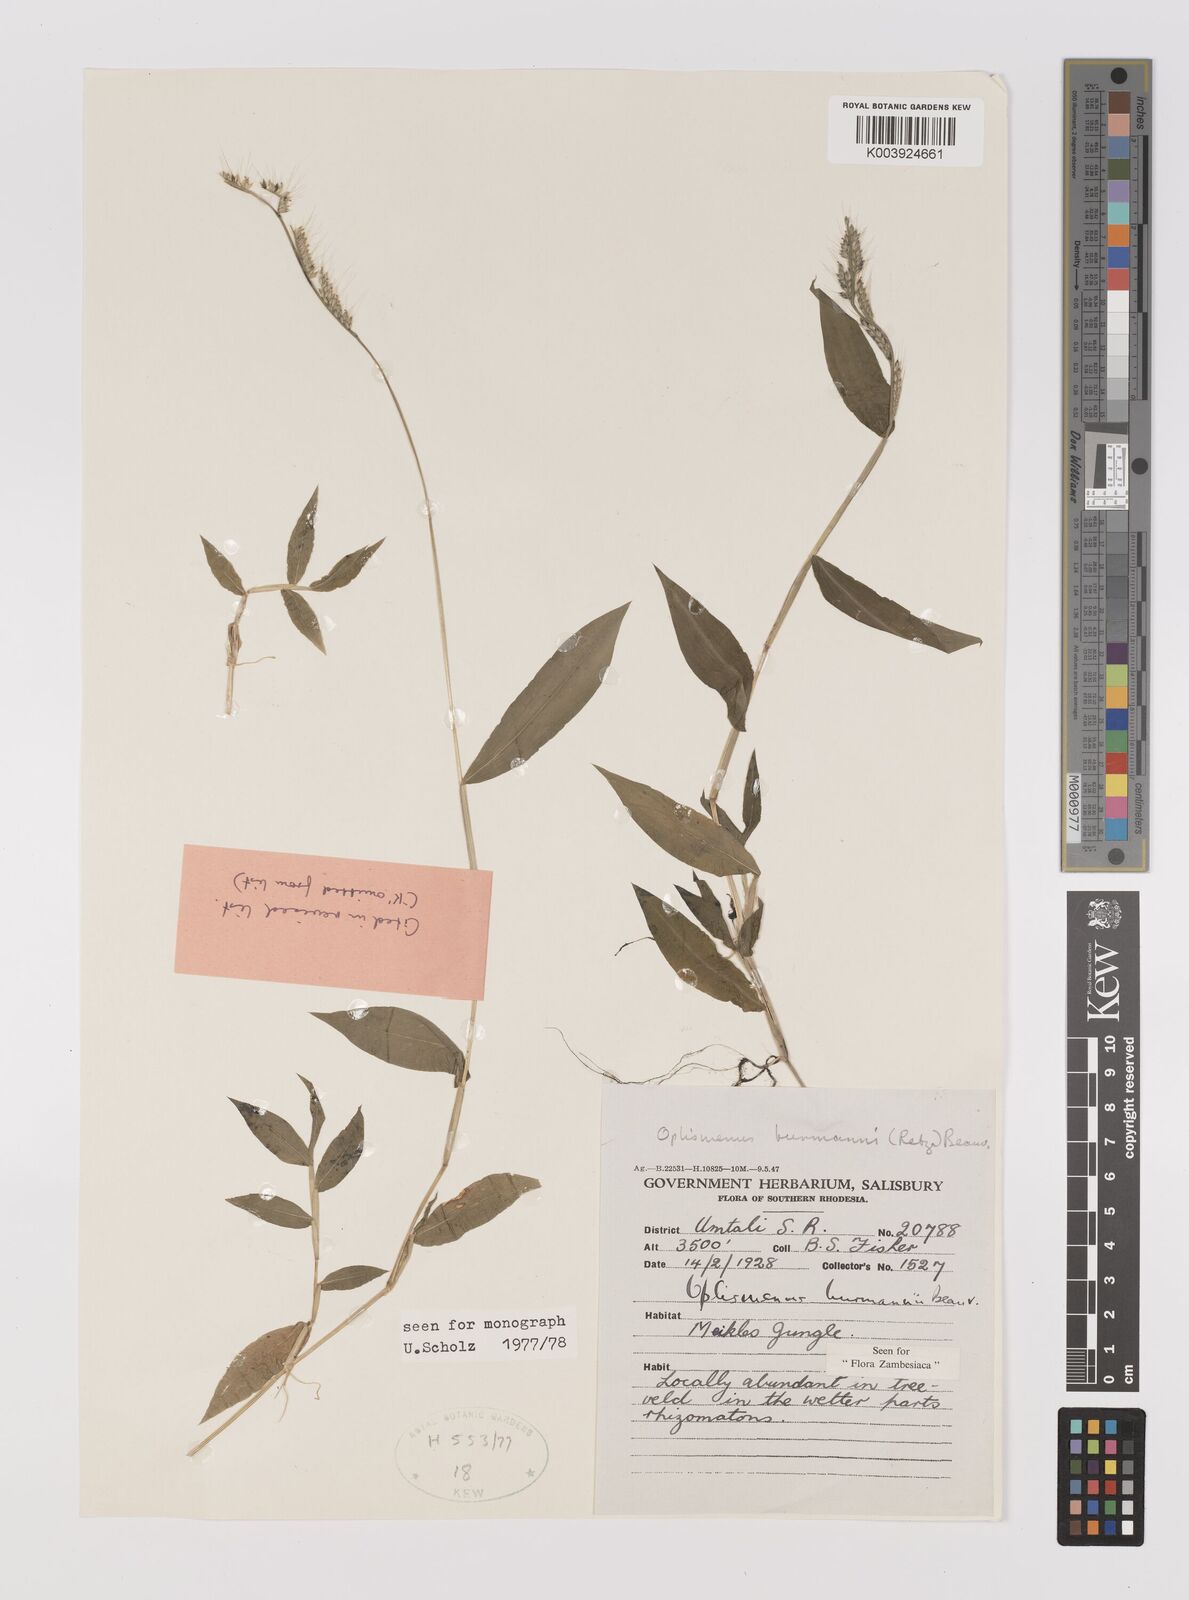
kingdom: Plantae
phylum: Tracheophyta
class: Liliopsida
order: Poales
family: Poaceae
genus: Oplismenus
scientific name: Oplismenus burmanni
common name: Burmann's basketgrass
